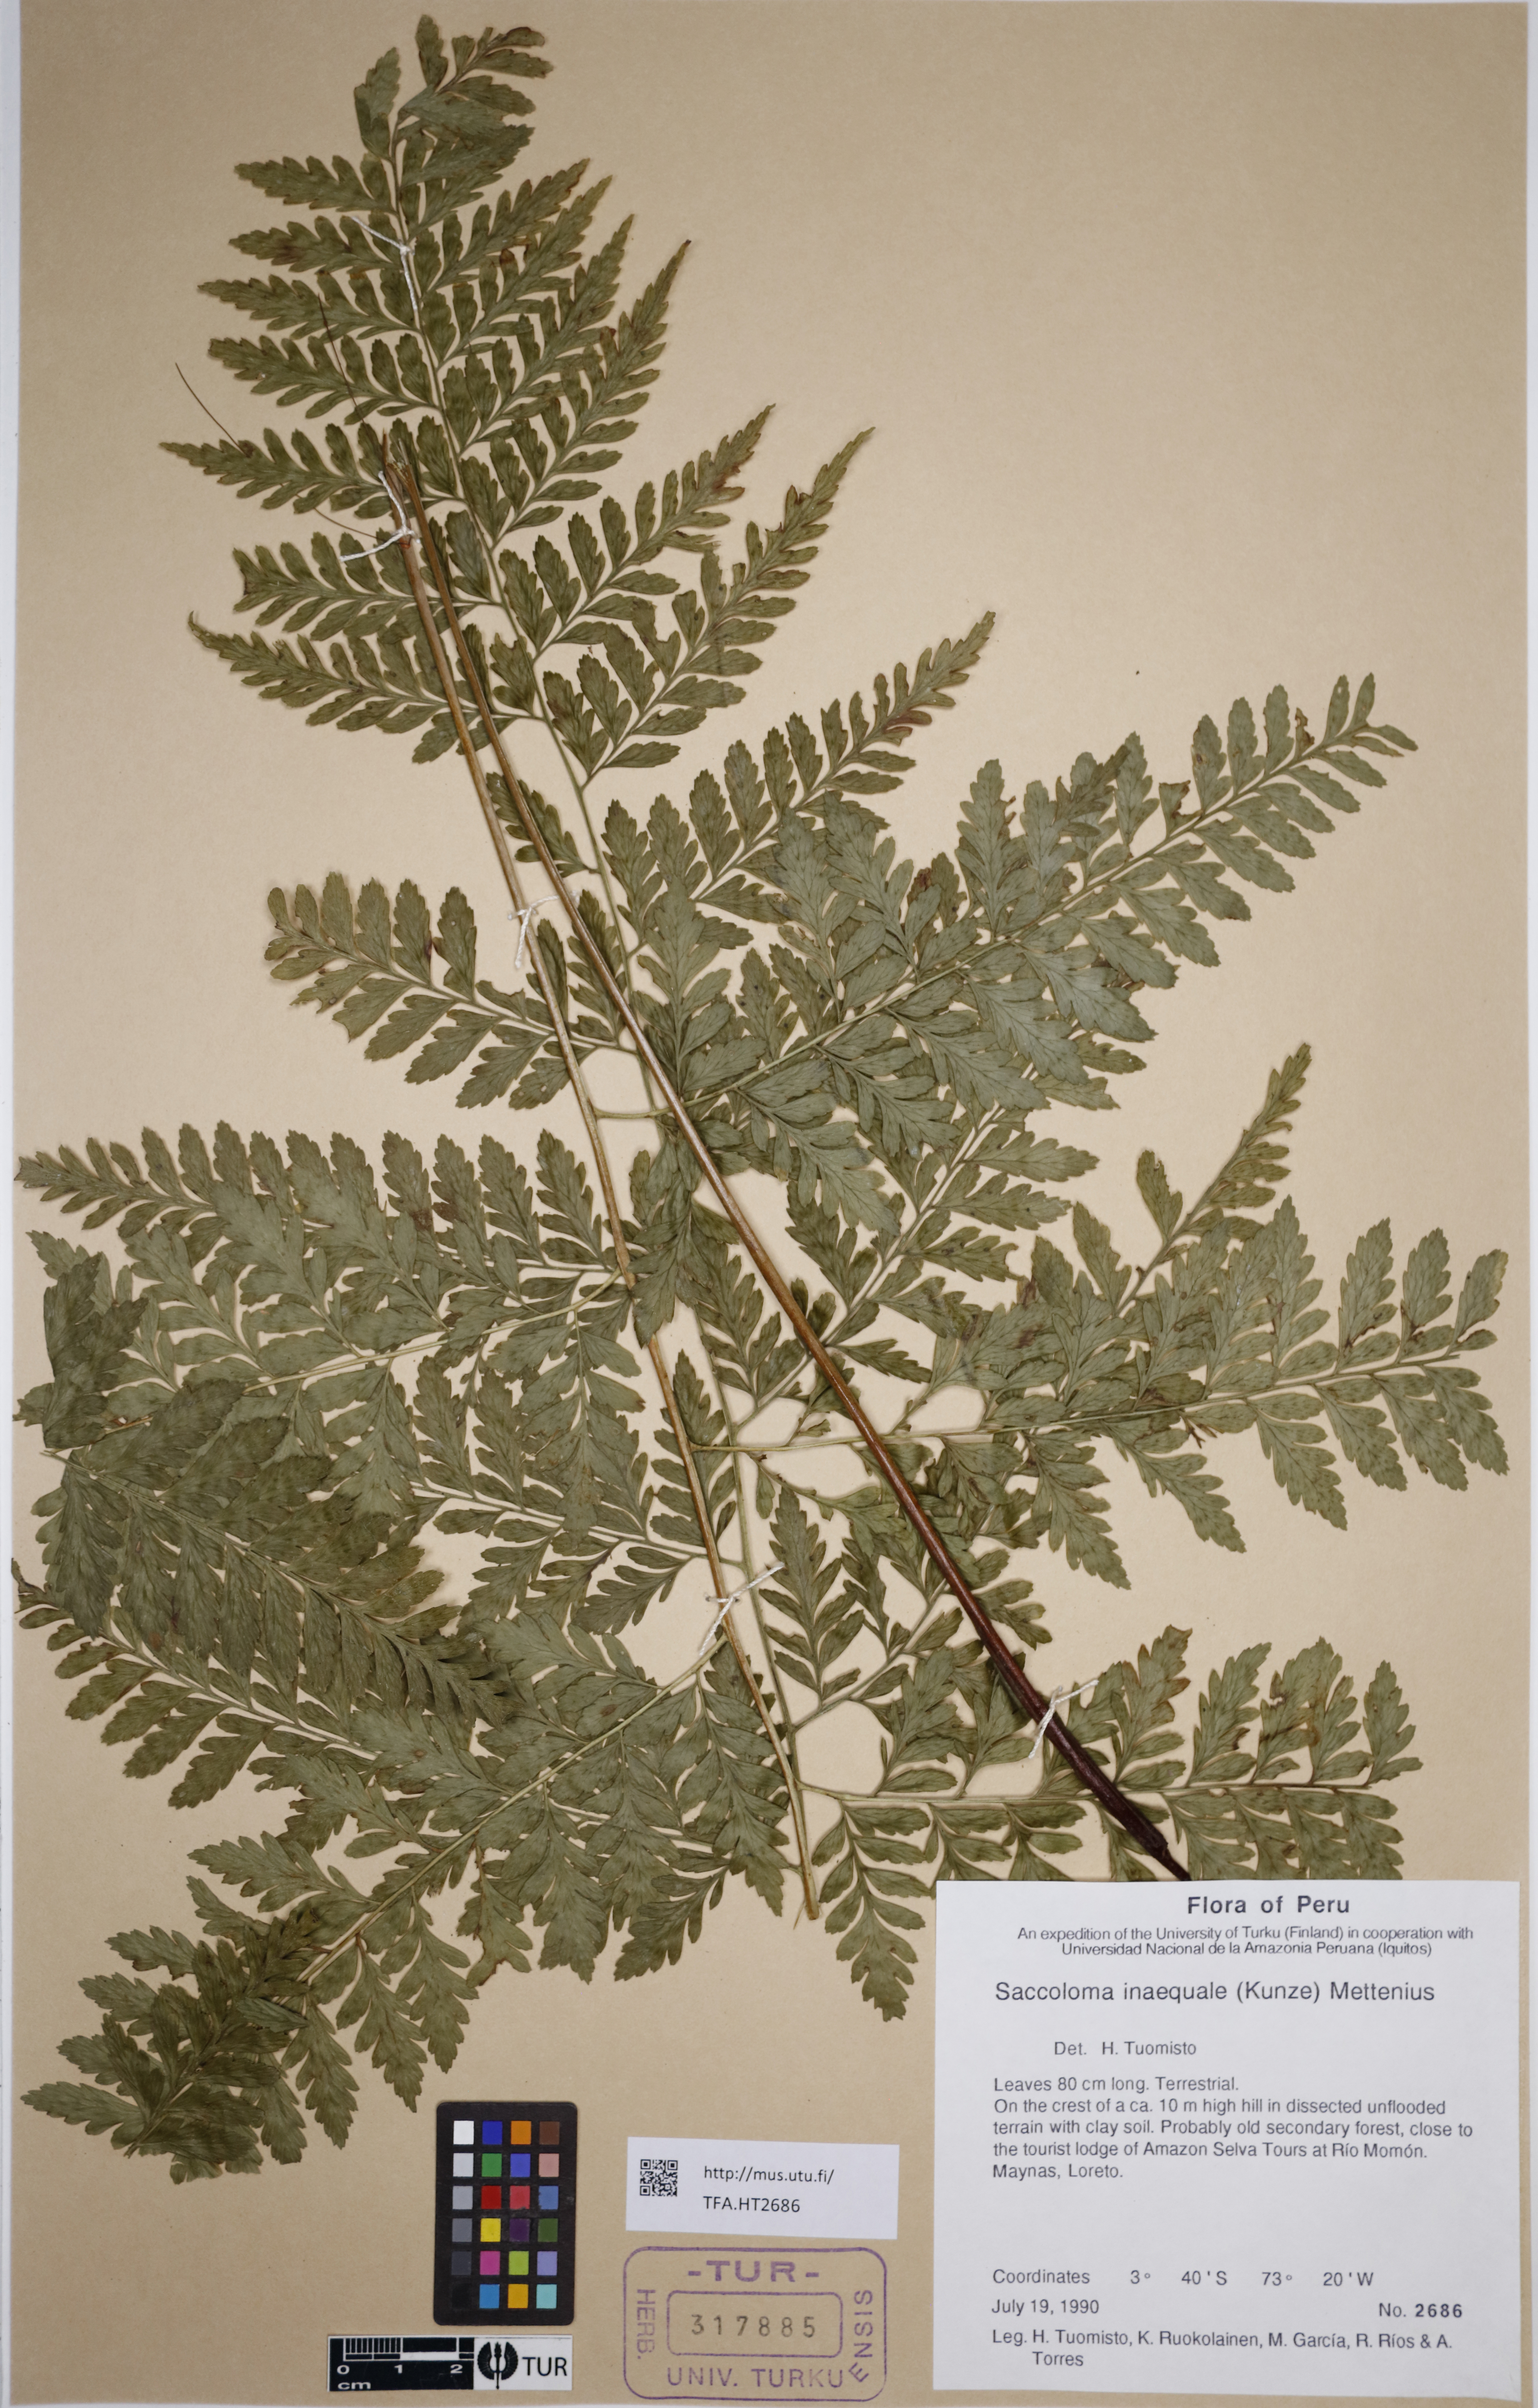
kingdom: Plantae
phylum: Tracheophyta
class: Polypodiopsida
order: Polypodiales
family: Saccolomataceae
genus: Saccoloma
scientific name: Saccoloma inaequale
